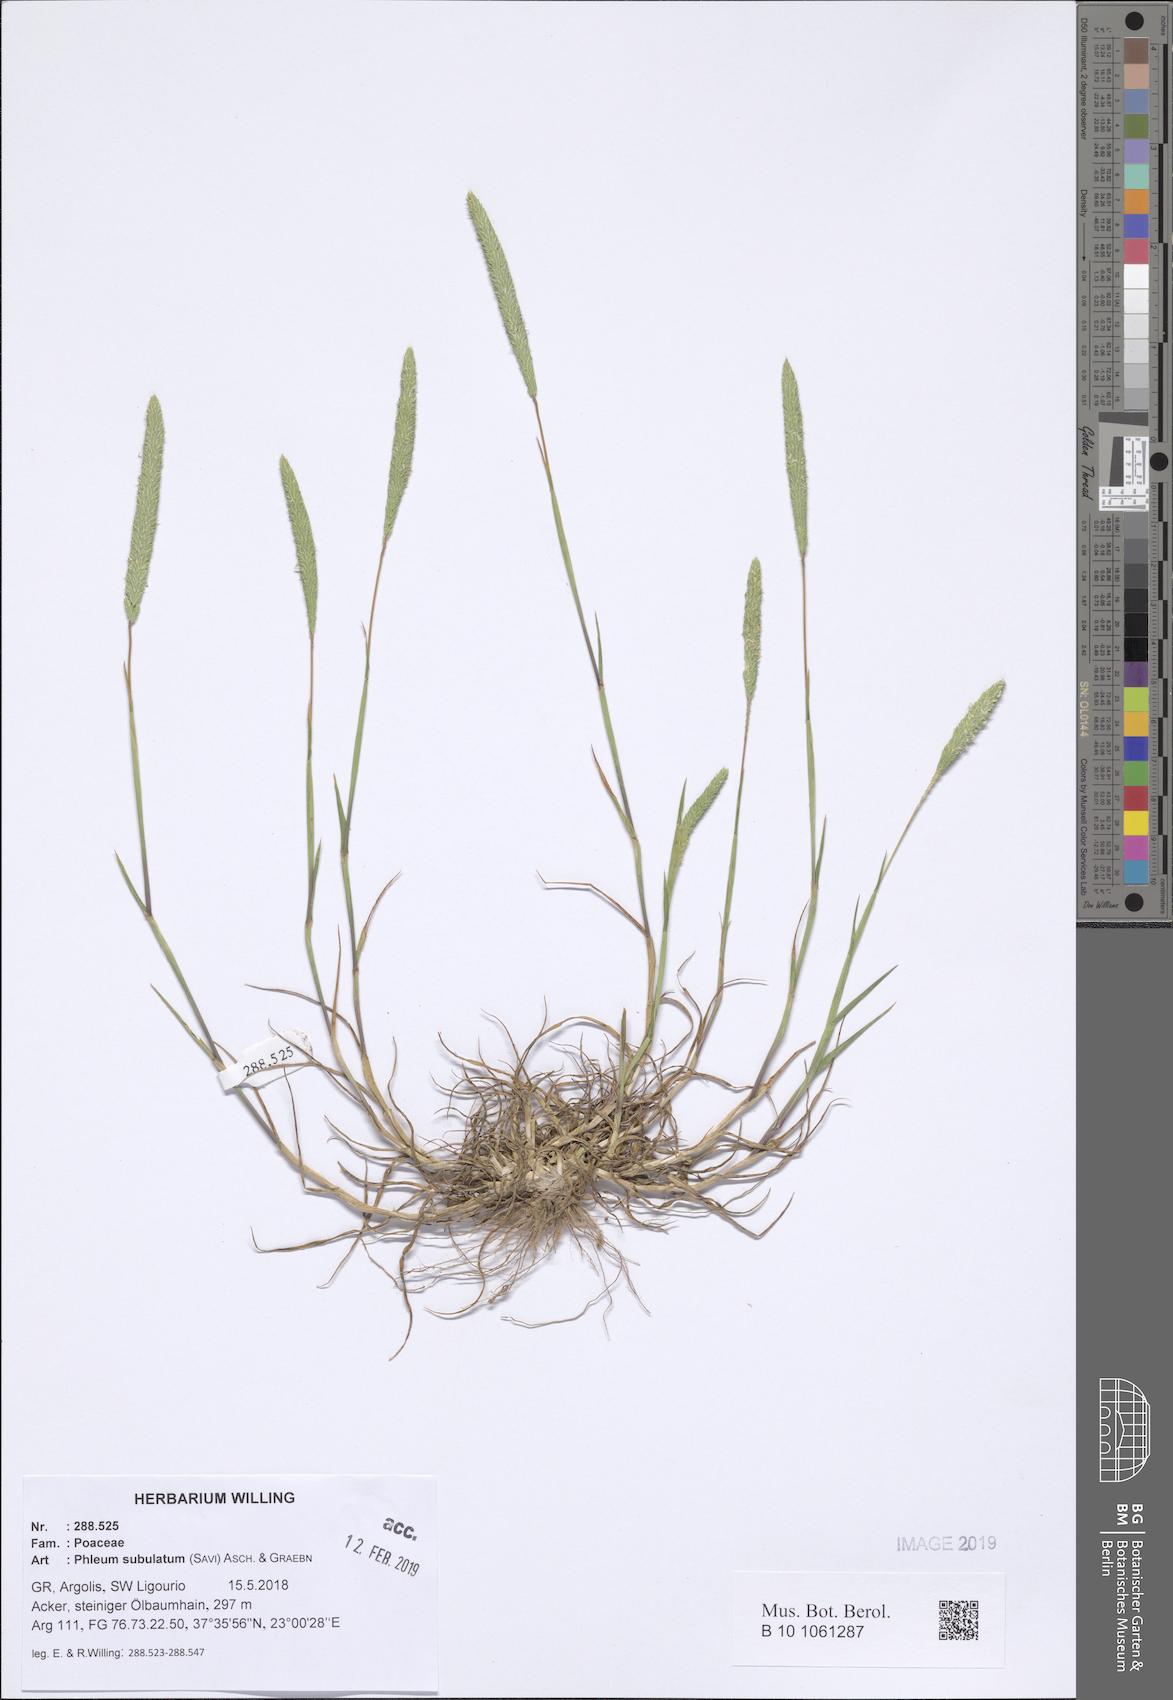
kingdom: Plantae
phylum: Tracheophyta
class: Liliopsida
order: Poales
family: Poaceae
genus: Phleum
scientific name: Phleum subulatum
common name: Italian timothy
